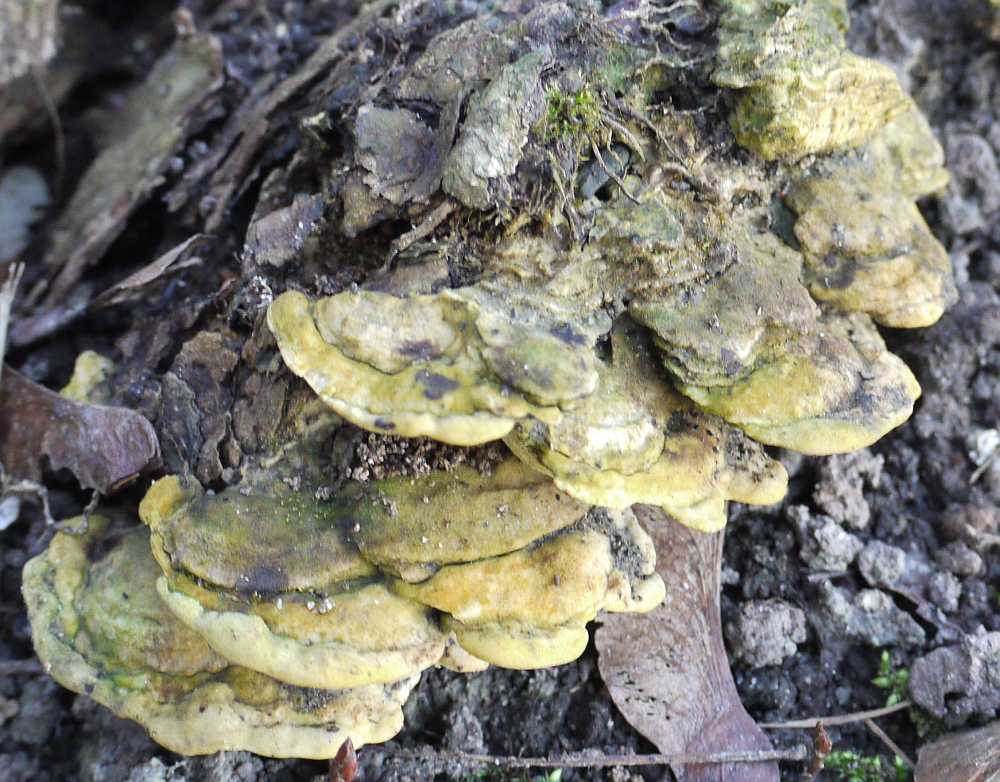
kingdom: Fungi
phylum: Basidiomycota
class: Agaricomycetes
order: Hymenochaetales
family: Oxyporaceae
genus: Oxyporus
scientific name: Oxyporus populinus
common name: sammenvokset trylleporesvamp
